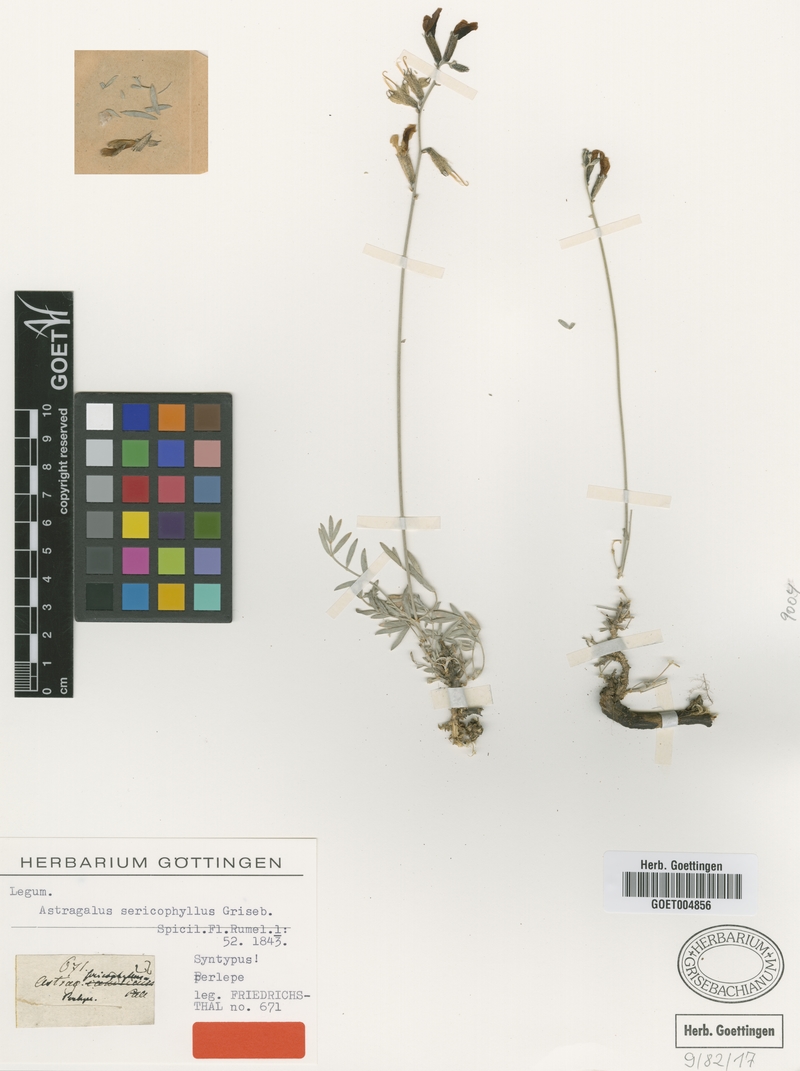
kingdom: Plantae
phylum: Tracheophyta
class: Magnoliopsida
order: Fabales
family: Fabaceae
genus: Astragalus
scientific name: Astragalus sericophyllus
